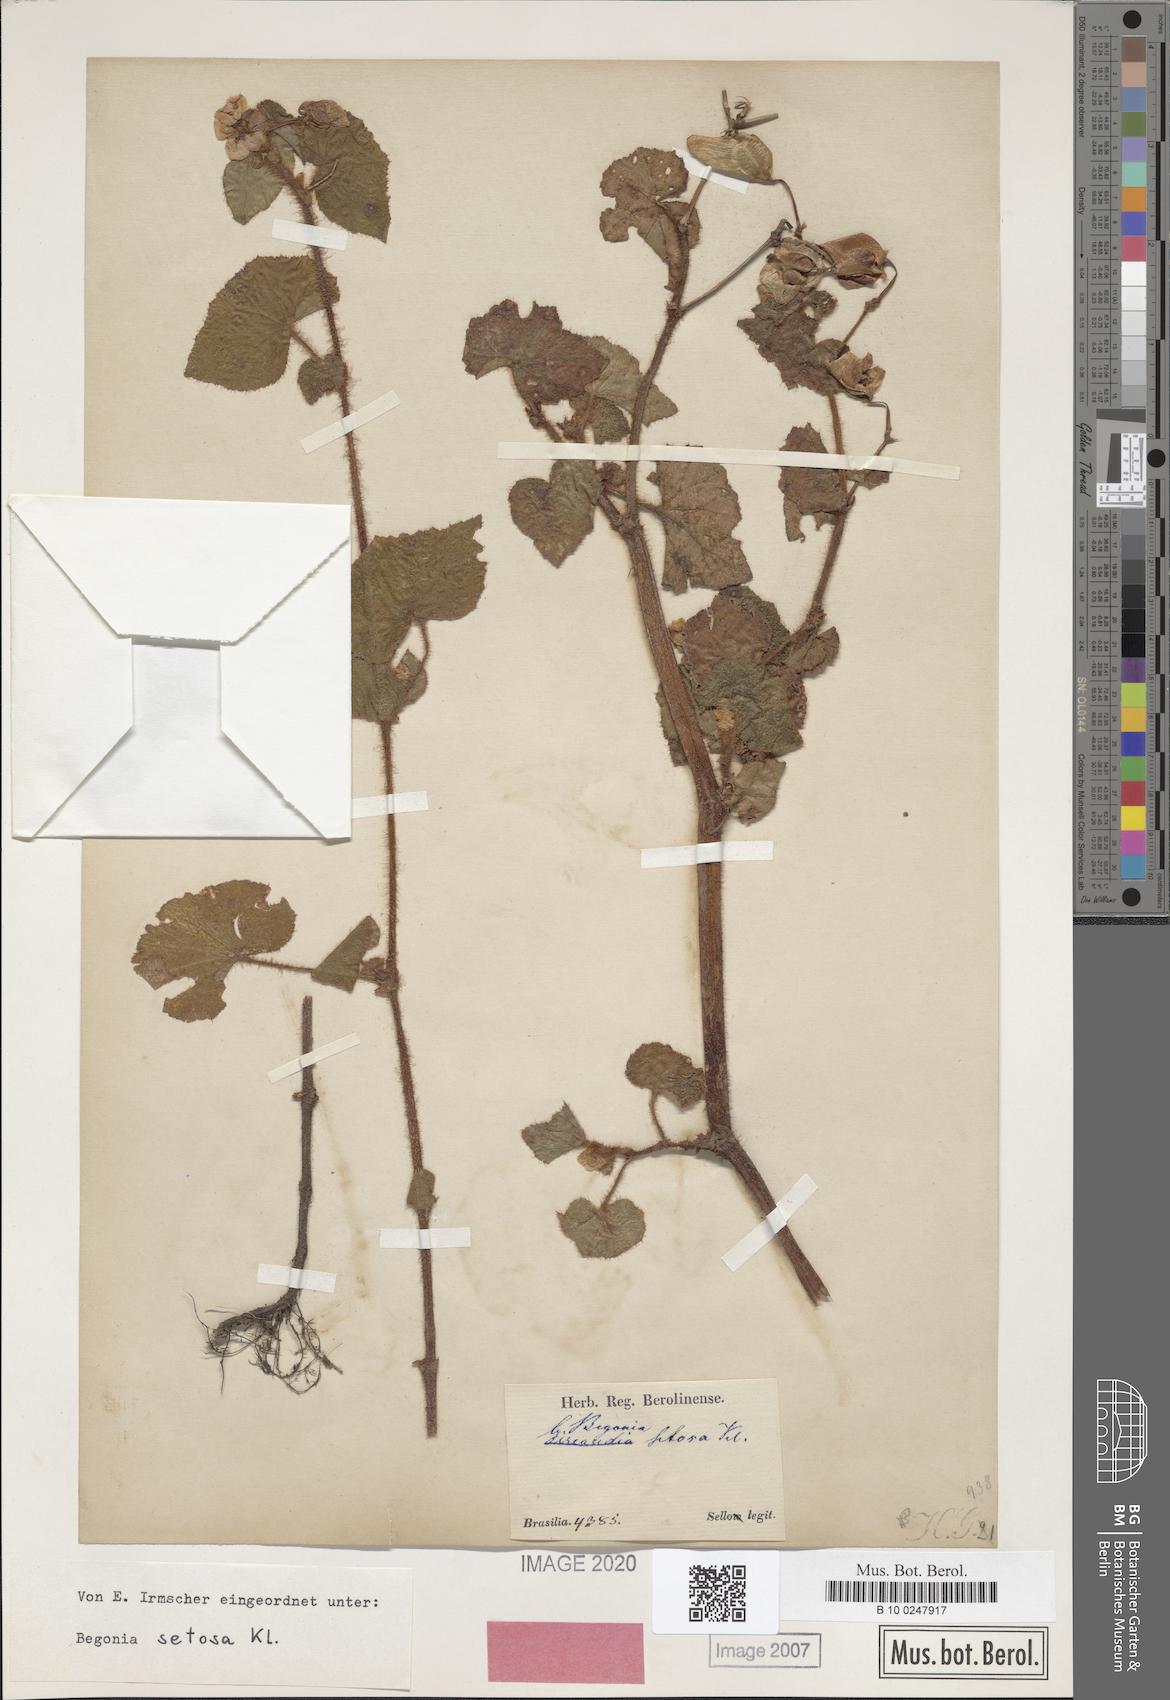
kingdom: Plantae
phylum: Tracheophyta
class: Magnoliopsida
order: Cucurbitales
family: Begoniaceae
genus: Begonia
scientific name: Begonia fischeri
